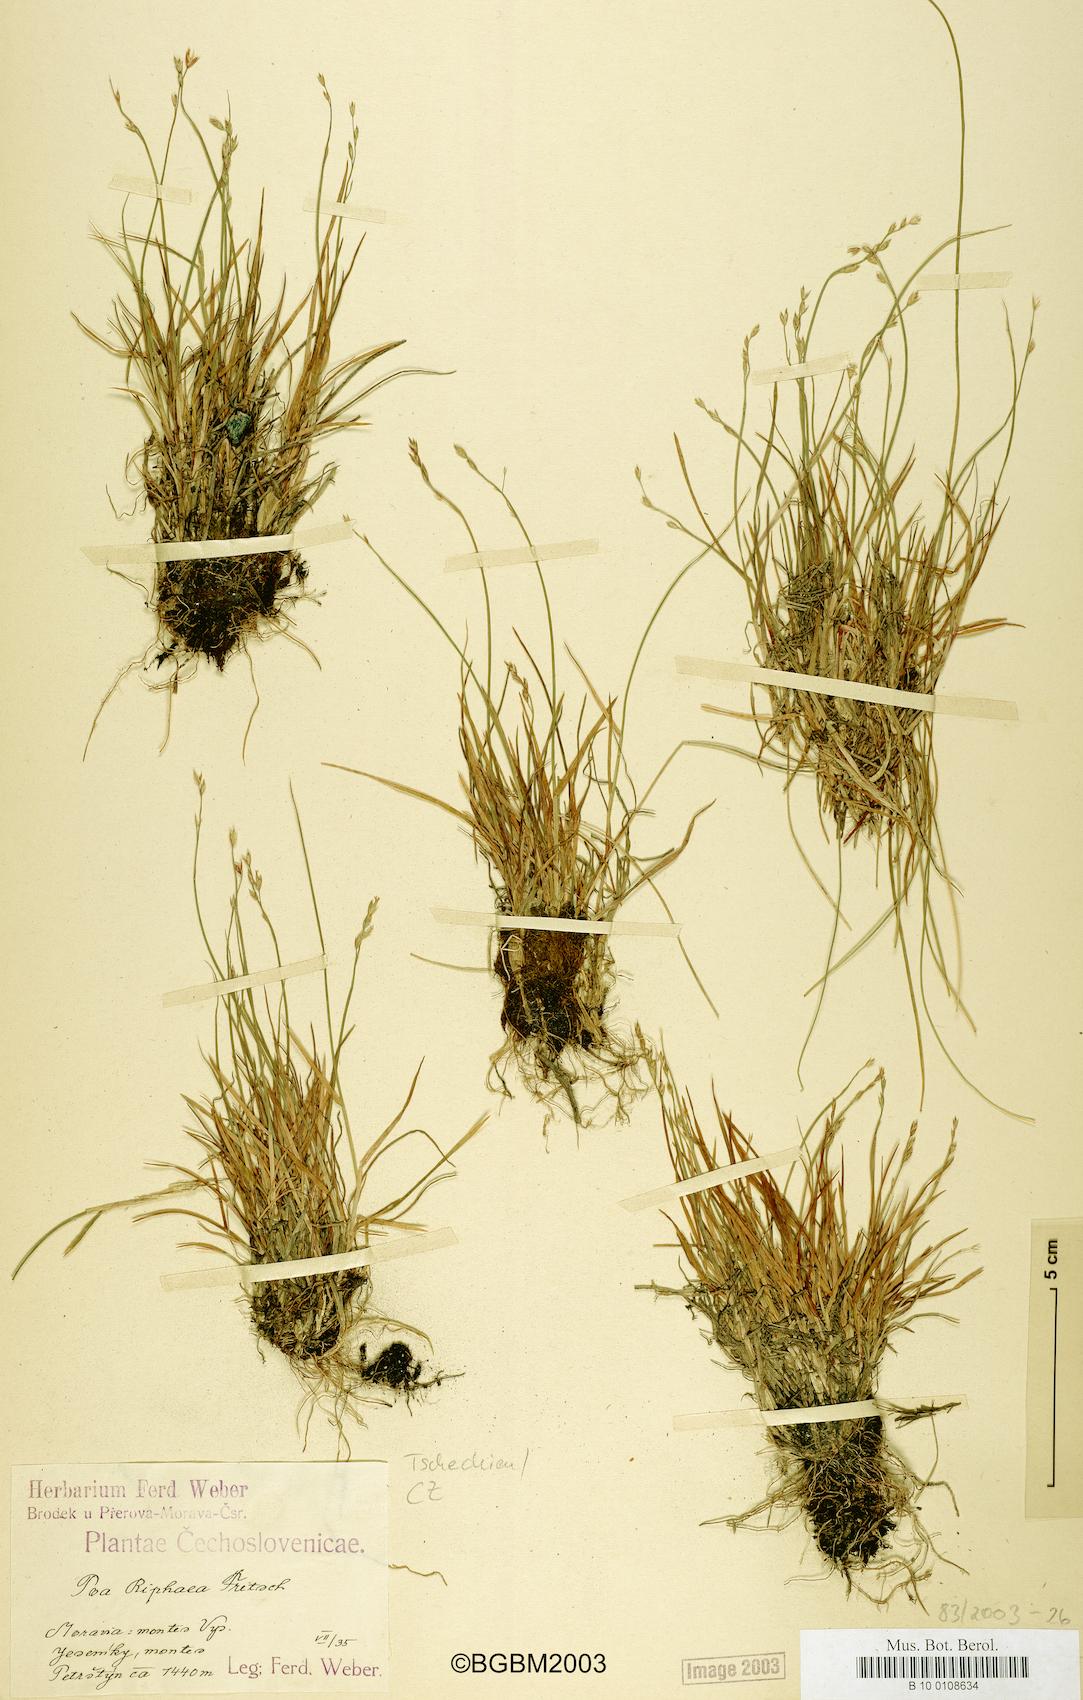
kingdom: Plantae
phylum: Tracheophyta
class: Liliopsida
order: Poales
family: Poaceae
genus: Poa
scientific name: Poa glauca
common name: Glaucous bluegrass
